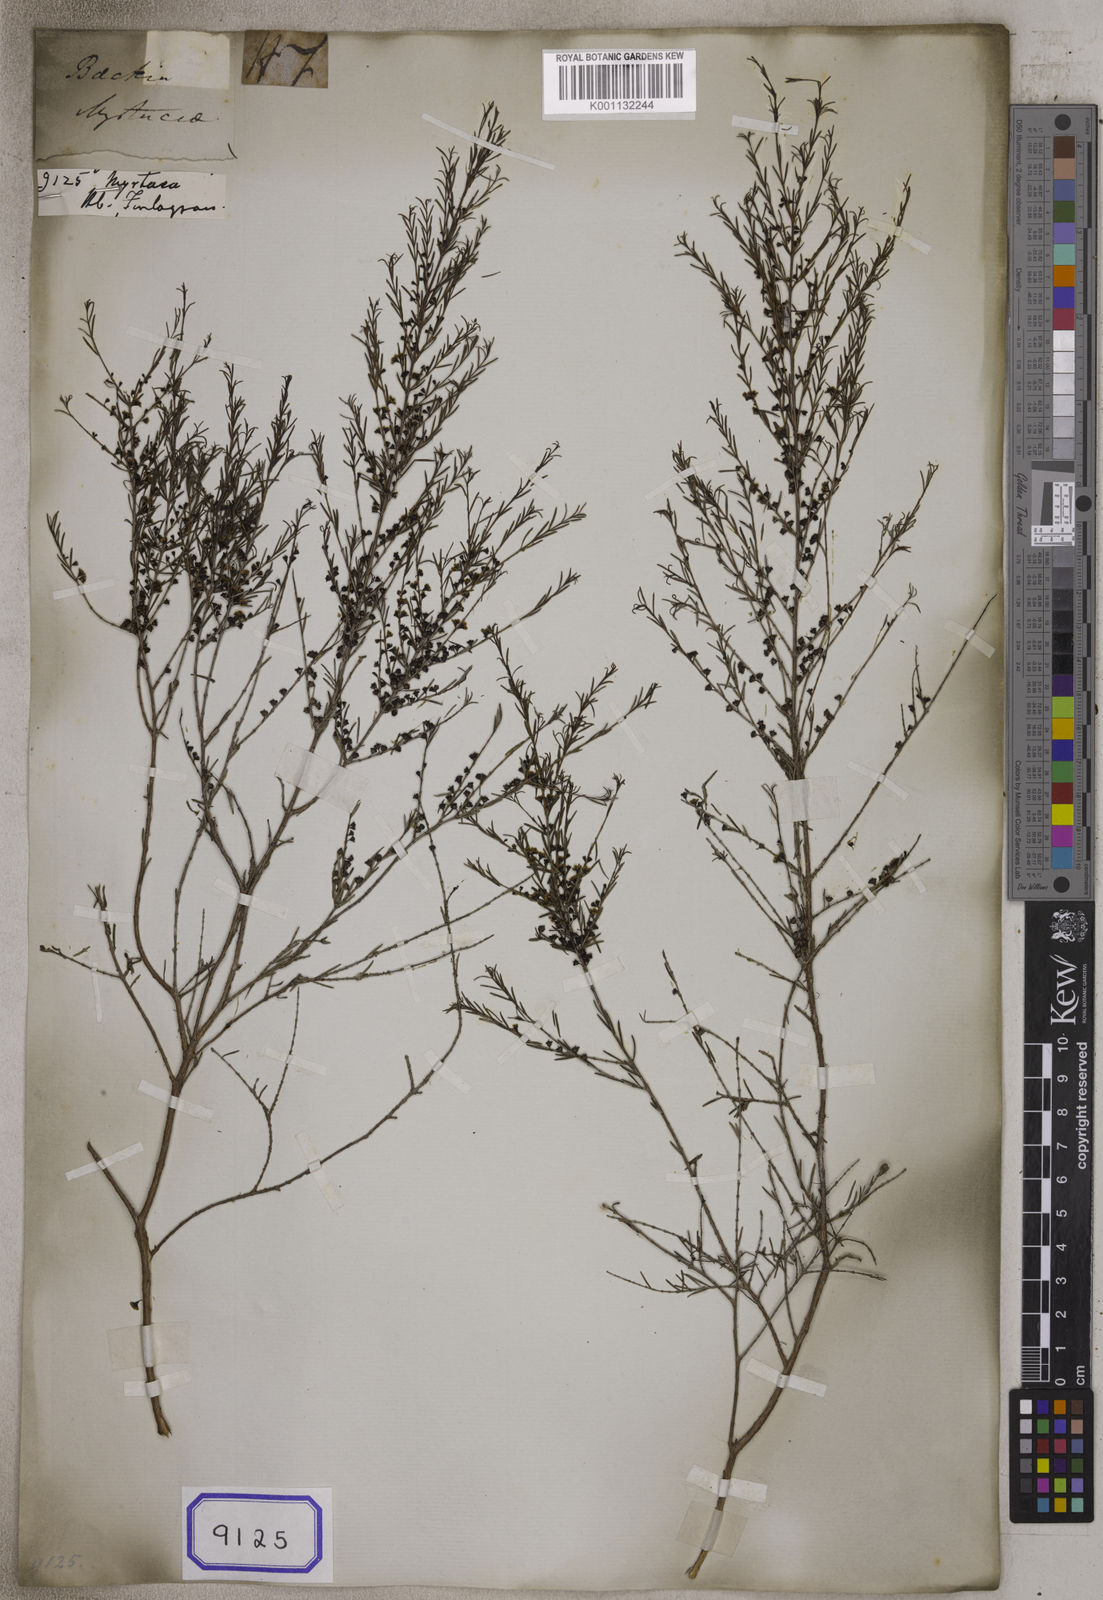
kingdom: Plantae
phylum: Tracheophyta
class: Magnoliopsida
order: Myrtales
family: Myrtaceae
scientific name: Myrtaceae
